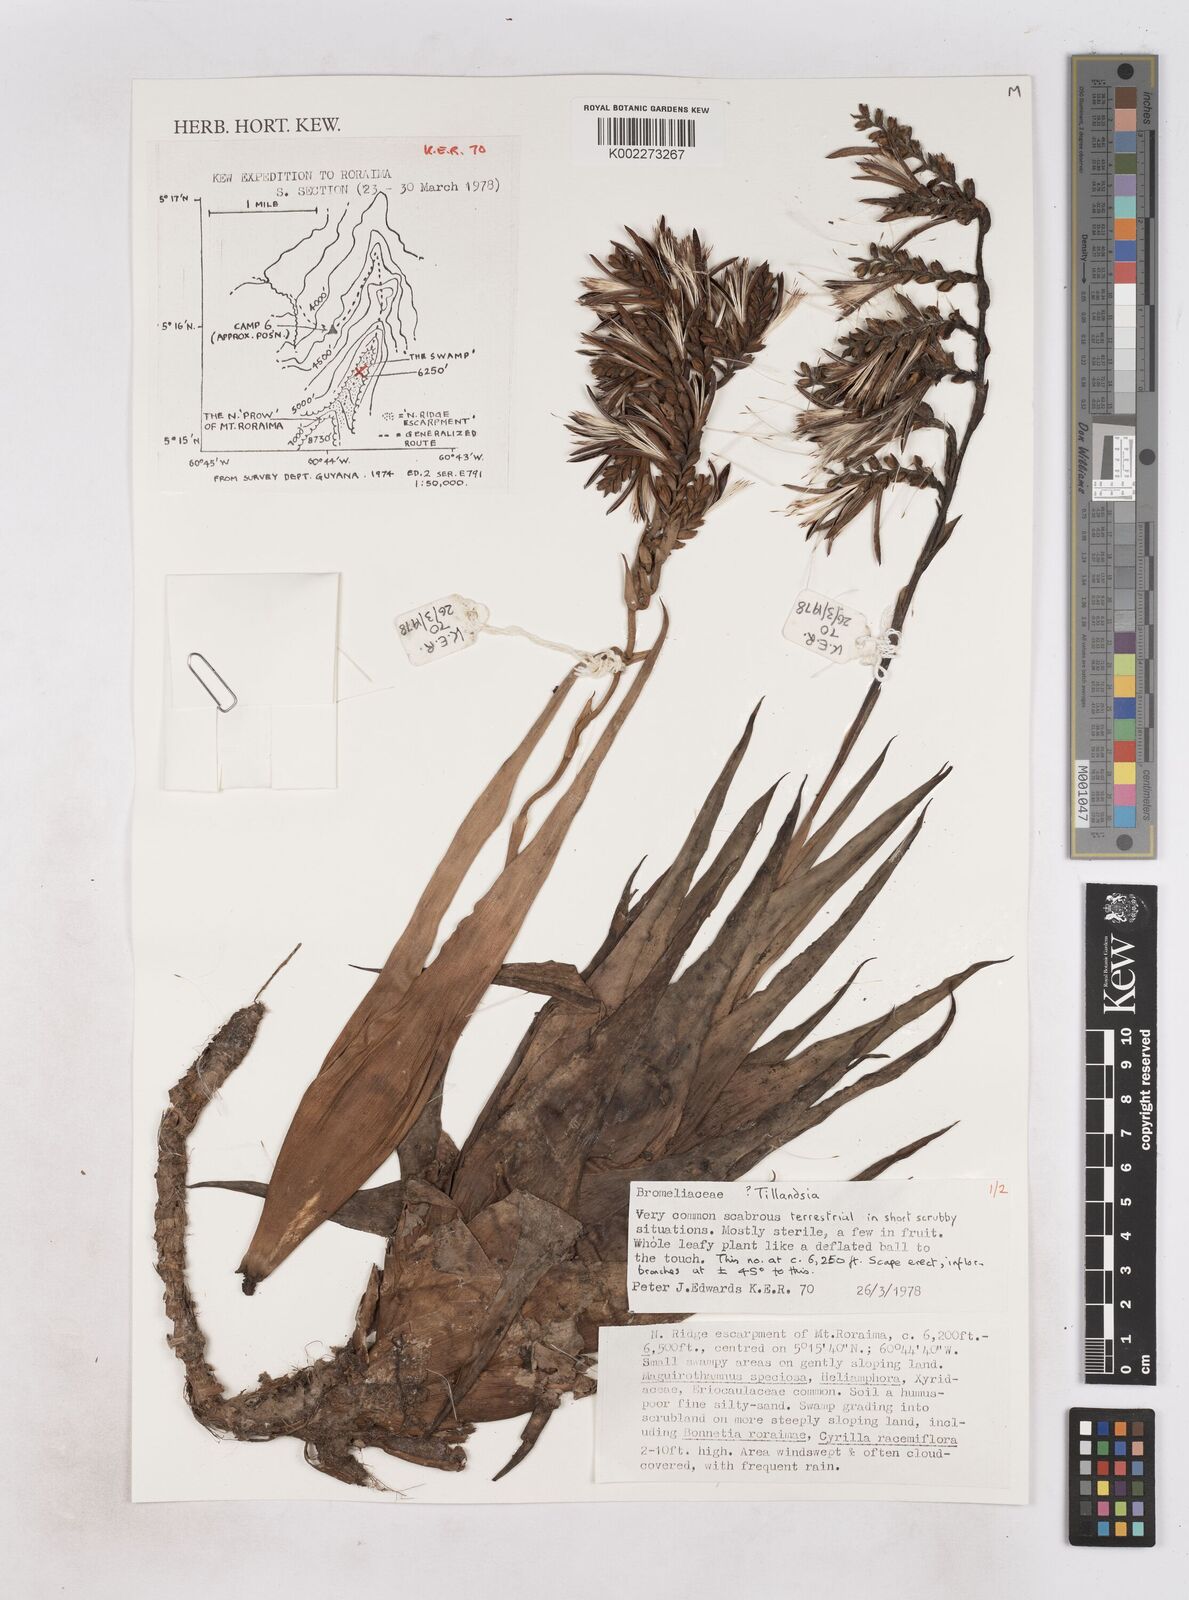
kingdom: Plantae
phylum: Tracheophyta
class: Liliopsida
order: Poales
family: Bromeliaceae
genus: Tillandsia
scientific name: Tillandsia
